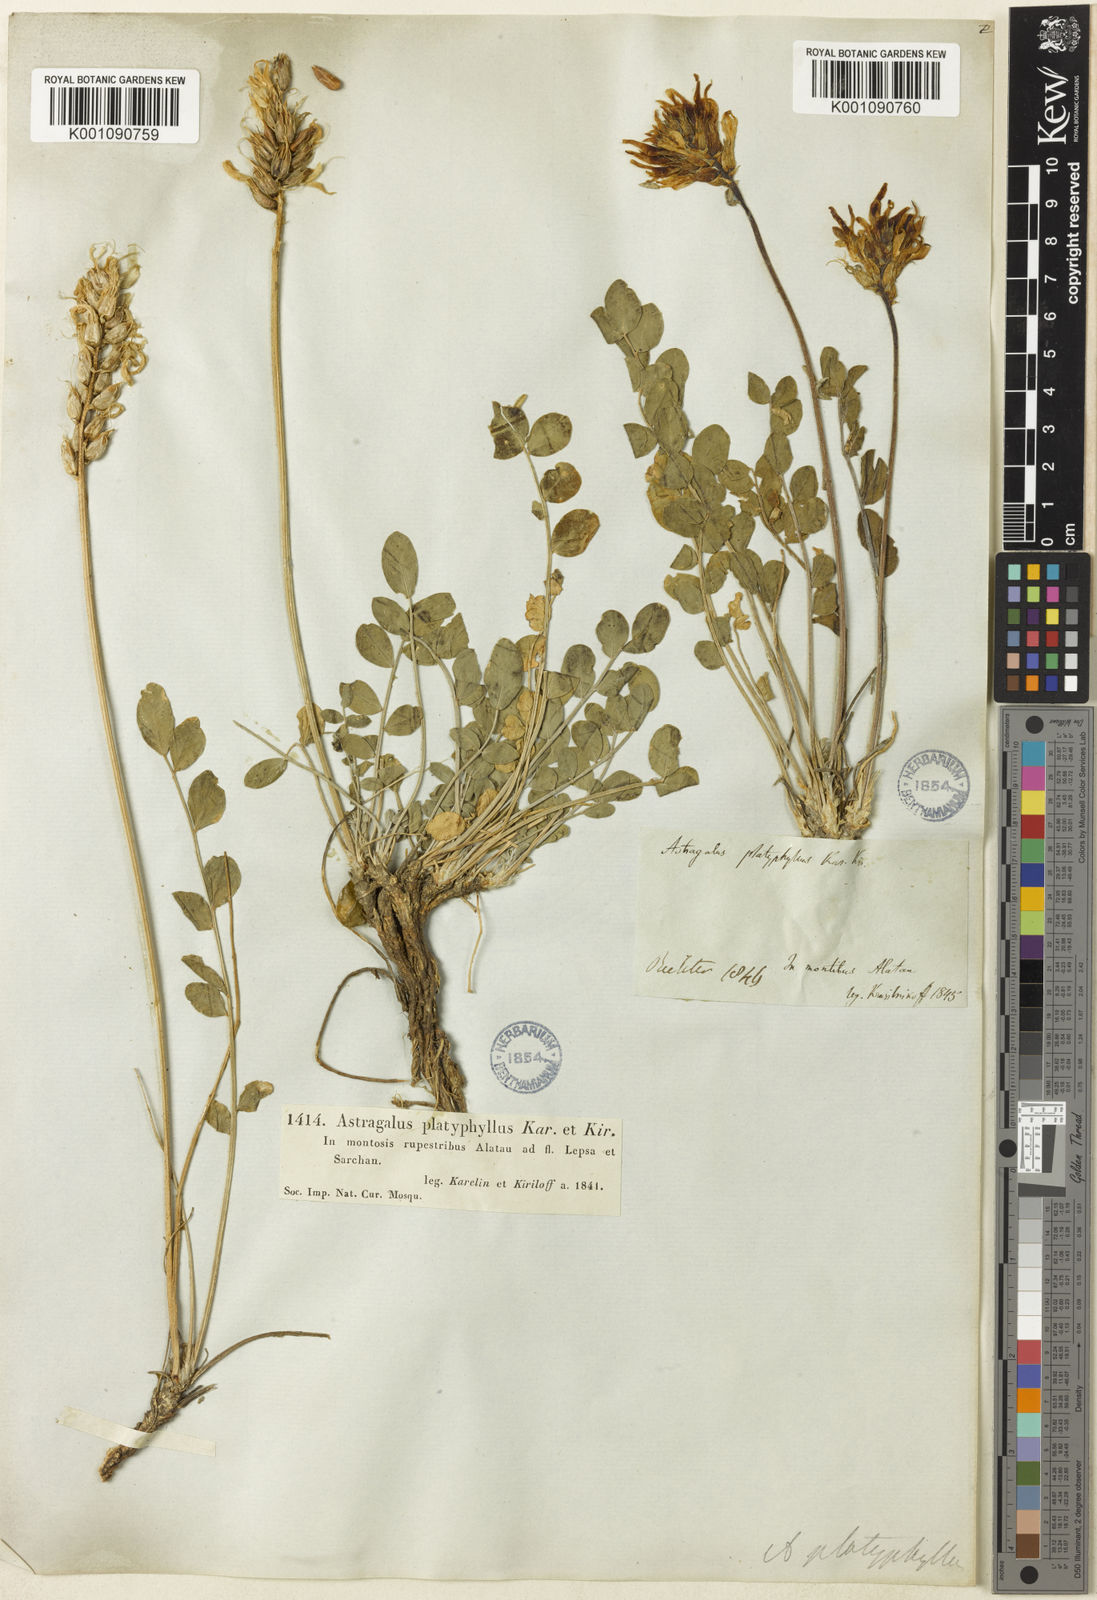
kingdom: Plantae
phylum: Tracheophyta
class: Magnoliopsida
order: Fabales
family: Fabaceae
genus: Astragalus
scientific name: Astragalus
